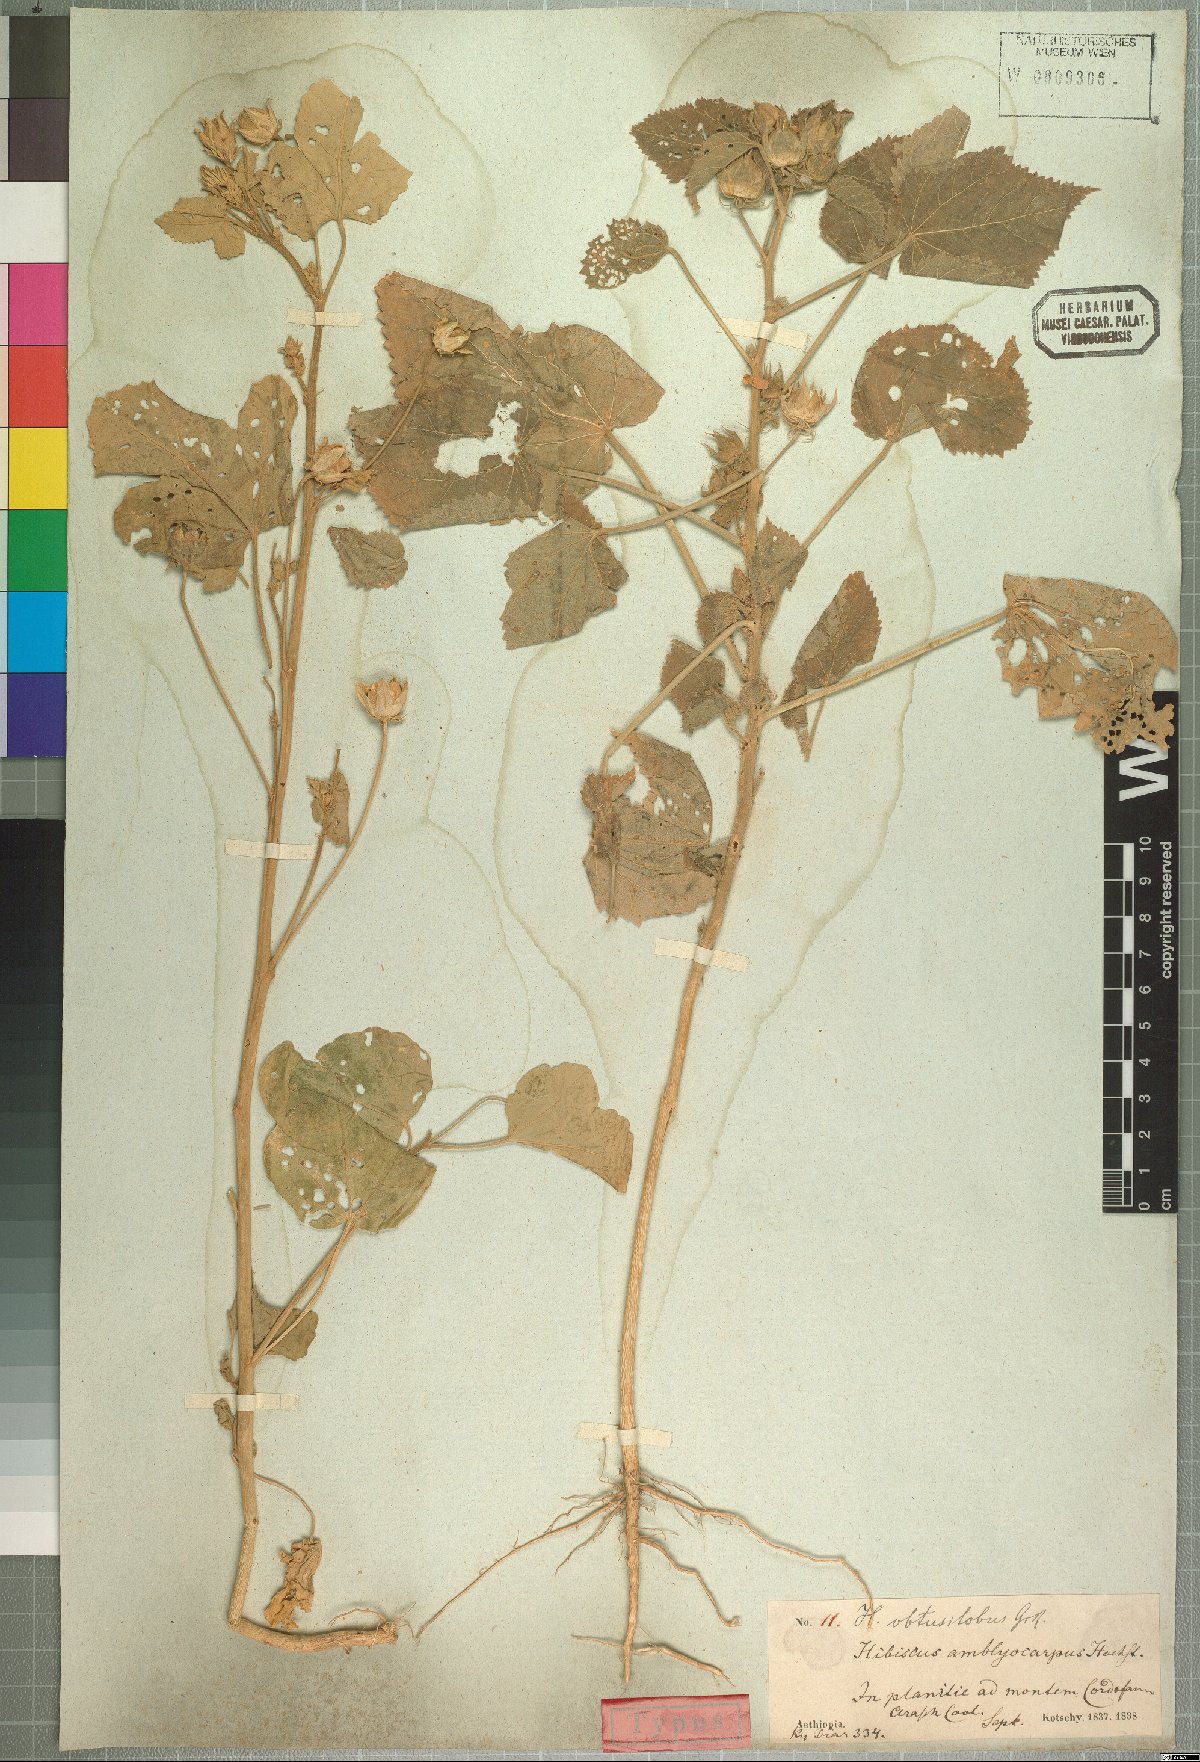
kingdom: Plantae
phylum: Tracheophyta
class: Magnoliopsida
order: Malvales
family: Malvaceae
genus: Hibiscus
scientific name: Hibiscus obtusilobus
